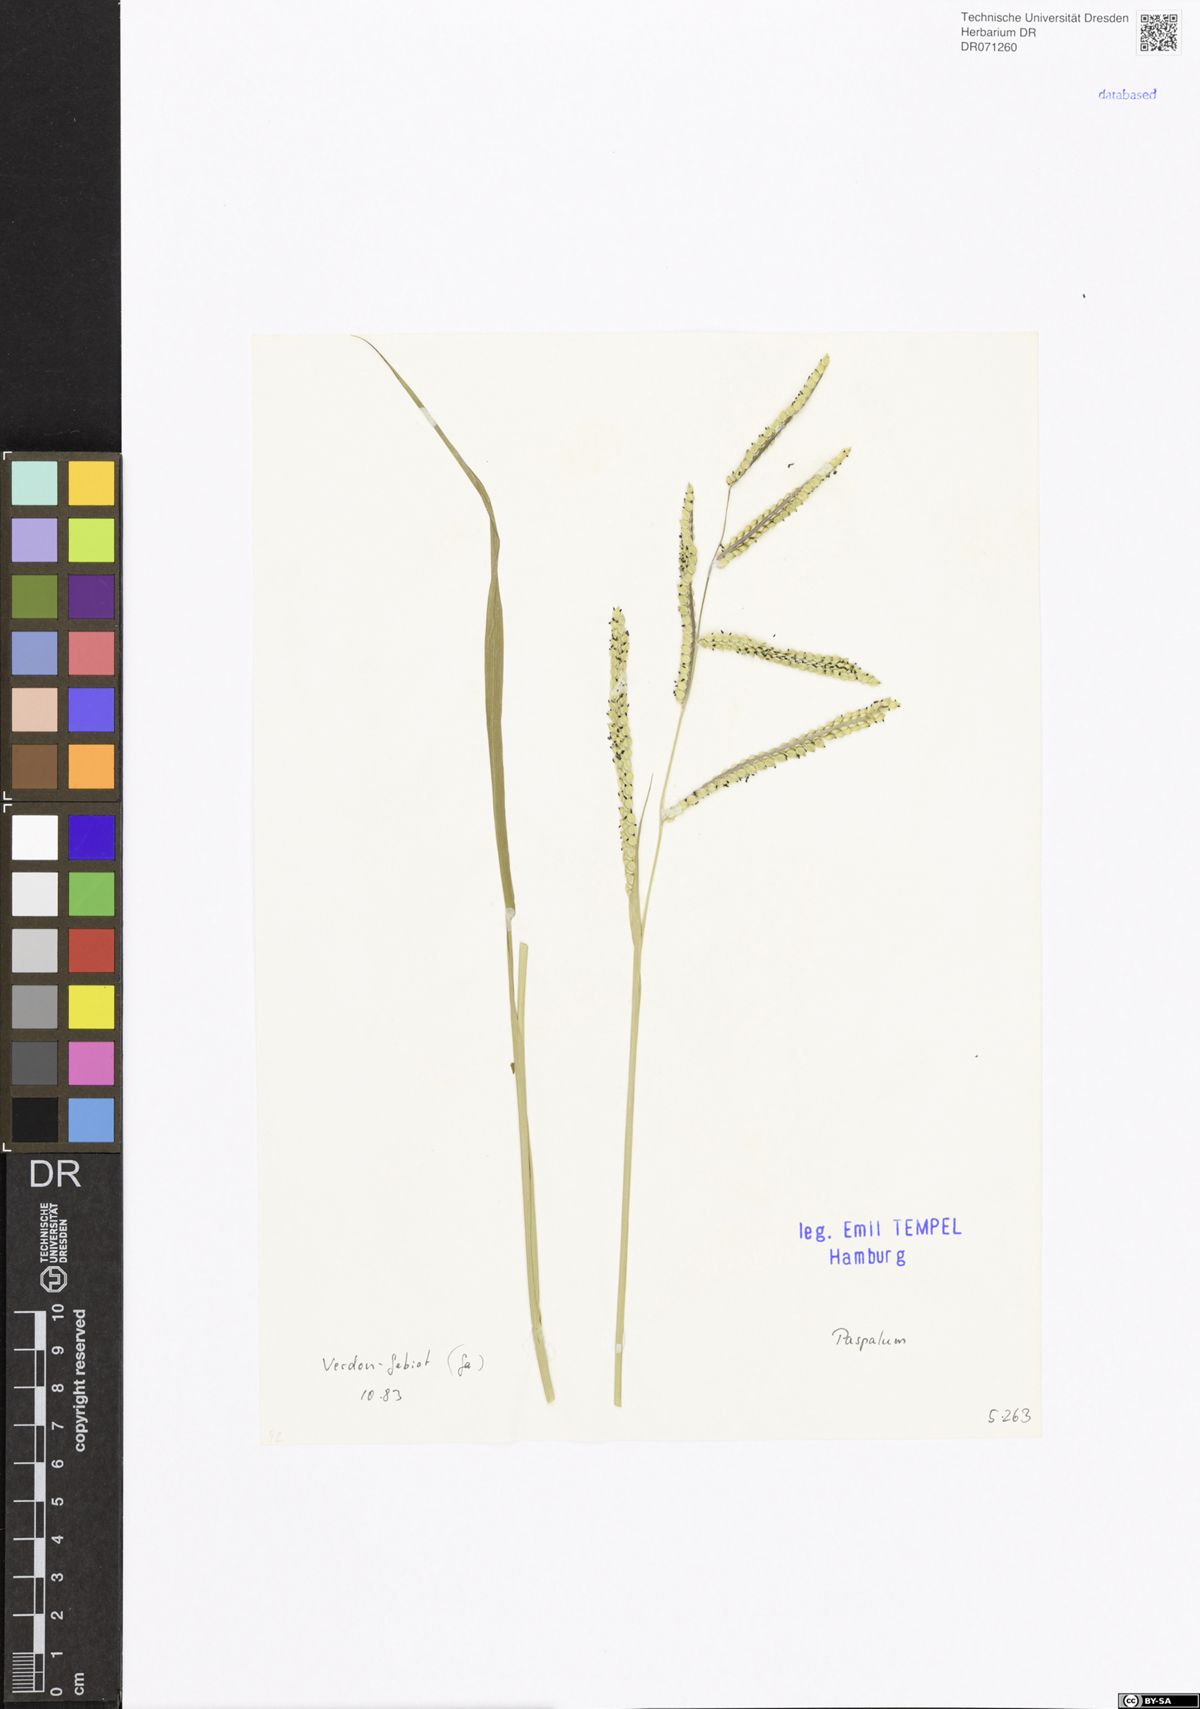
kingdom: Plantae
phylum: Tracheophyta
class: Liliopsida
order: Poales
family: Poaceae
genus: Paspalum
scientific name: Paspalum
